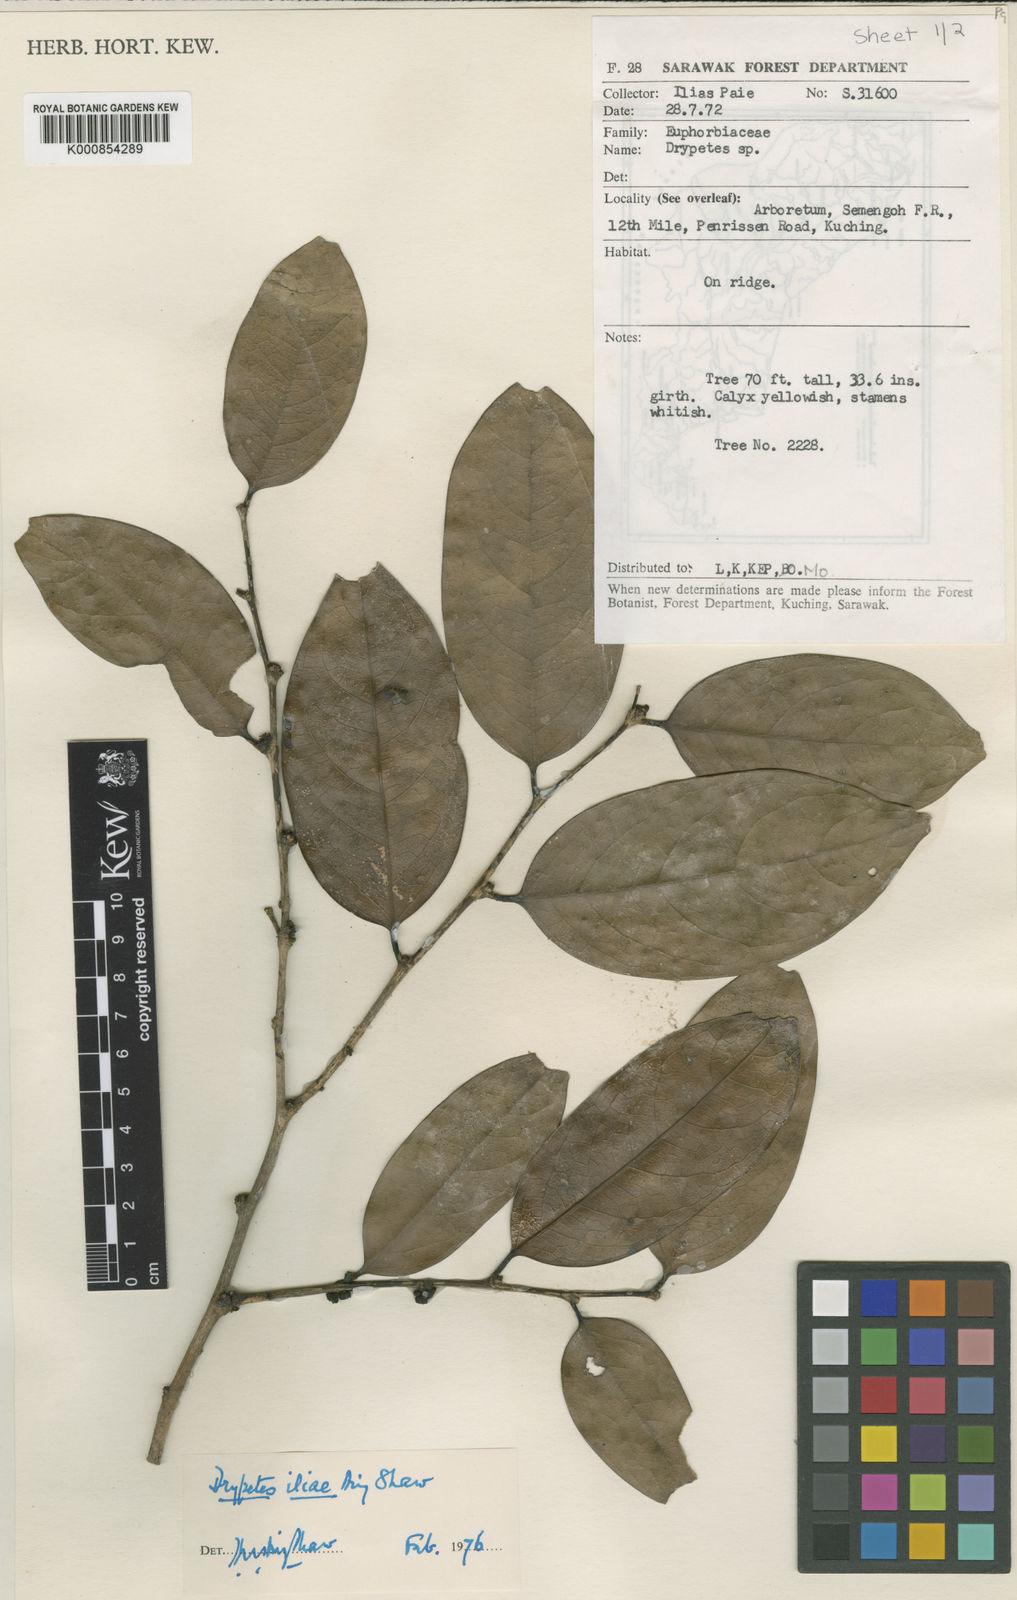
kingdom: Plantae
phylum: Tracheophyta
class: Magnoliopsida
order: Malpighiales
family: Putranjivaceae
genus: Drypetes
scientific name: Drypetes iliae
